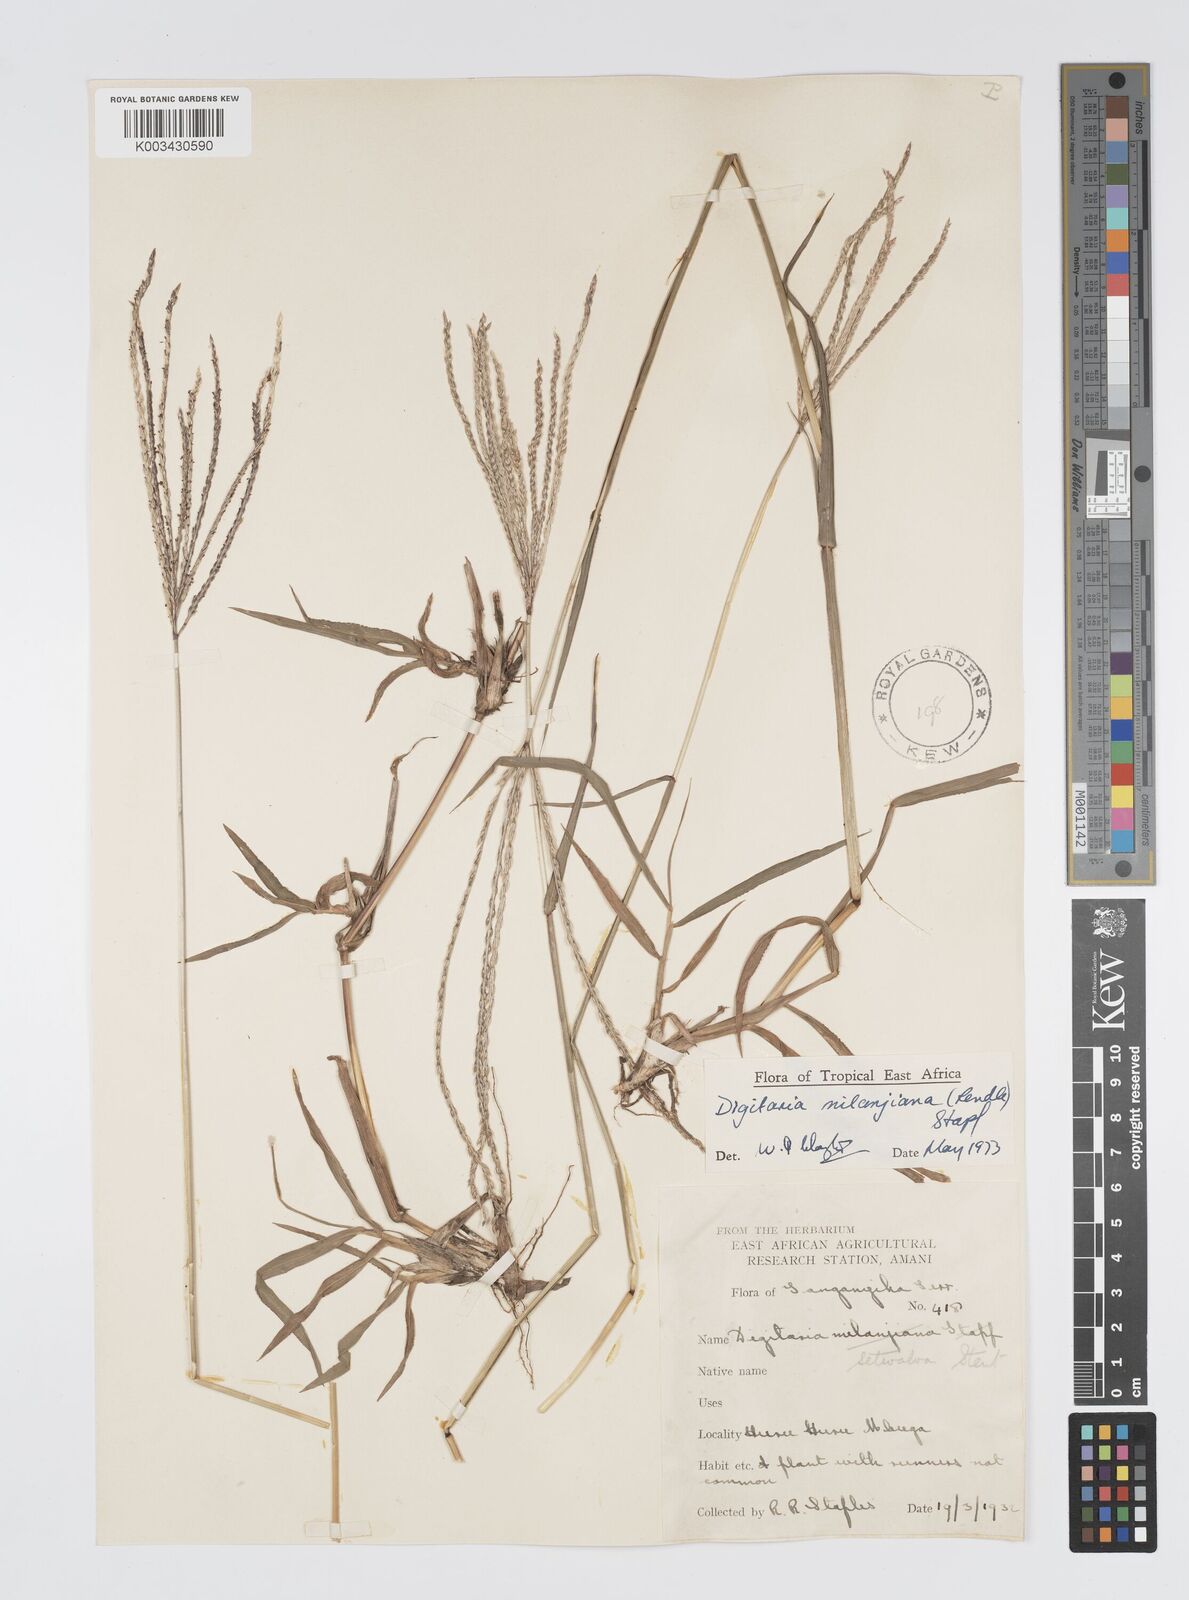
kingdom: Plantae
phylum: Tracheophyta
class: Liliopsida
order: Poales
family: Poaceae
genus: Digitaria
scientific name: Digitaria milanjiana
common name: Madagascar crabgrass
